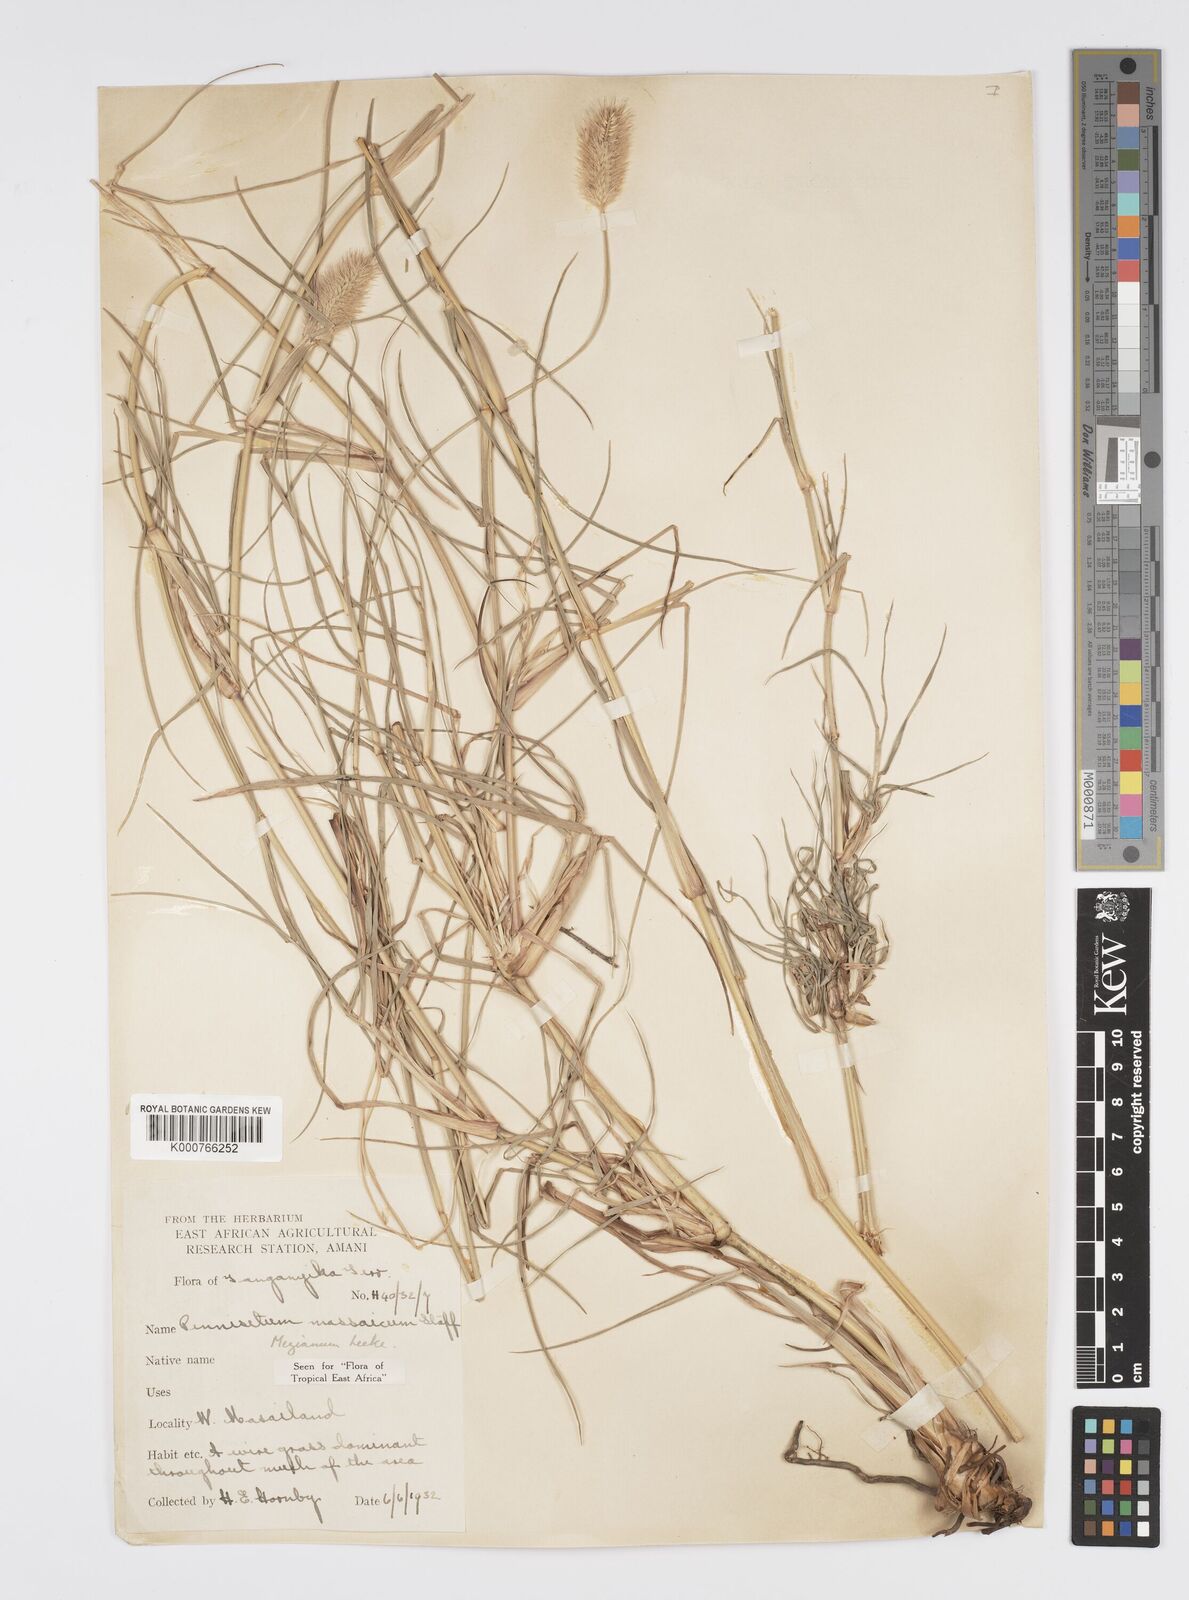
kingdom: Plantae
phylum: Tracheophyta
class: Liliopsida
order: Poales
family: Poaceae
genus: Cenchrus
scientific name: Cenchrus mezianus
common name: Bamboo grass
